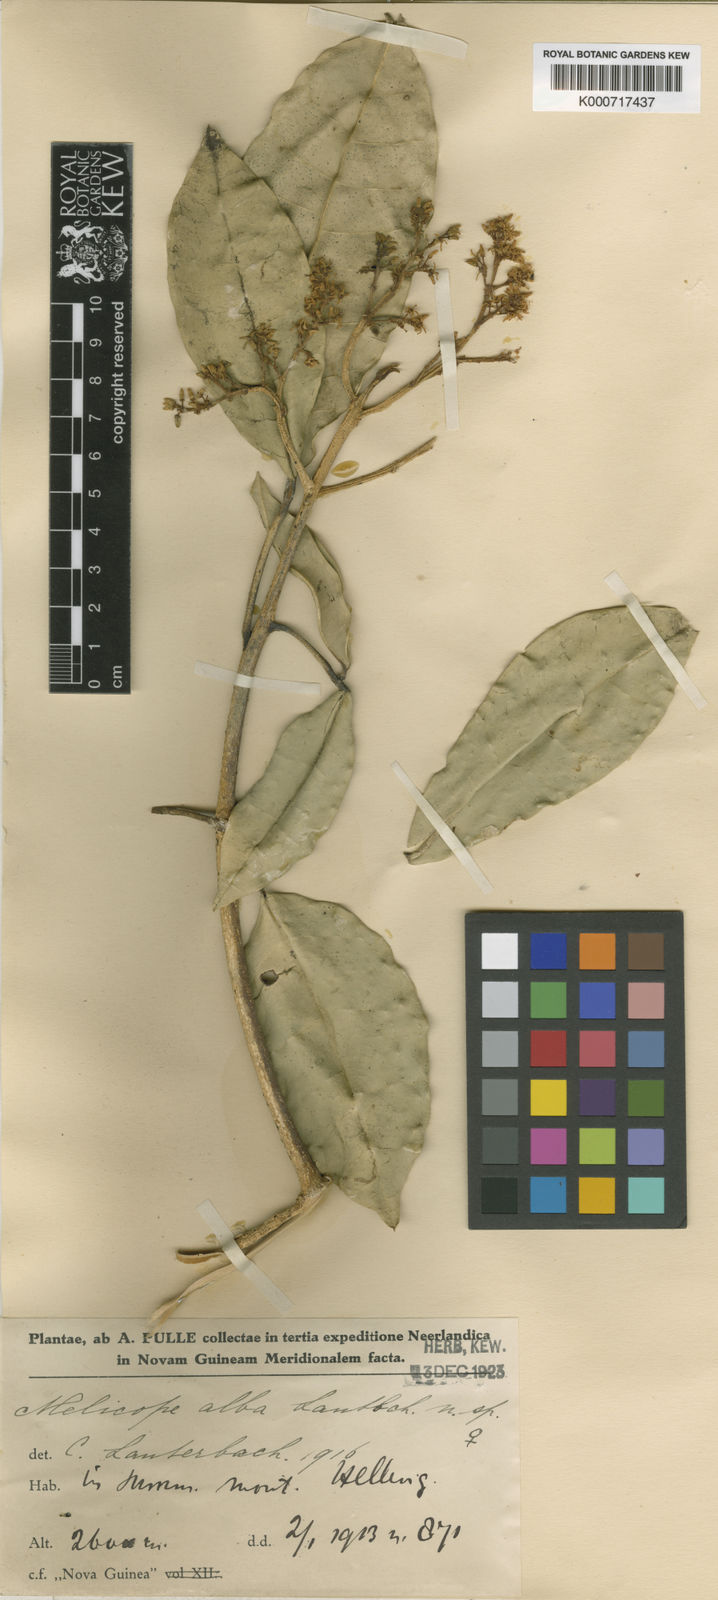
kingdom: Plantae
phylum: Tracheophyta
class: Magnoliopsida
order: Sapindales
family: Rutaceae
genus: Melicope
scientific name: Melicope alba
